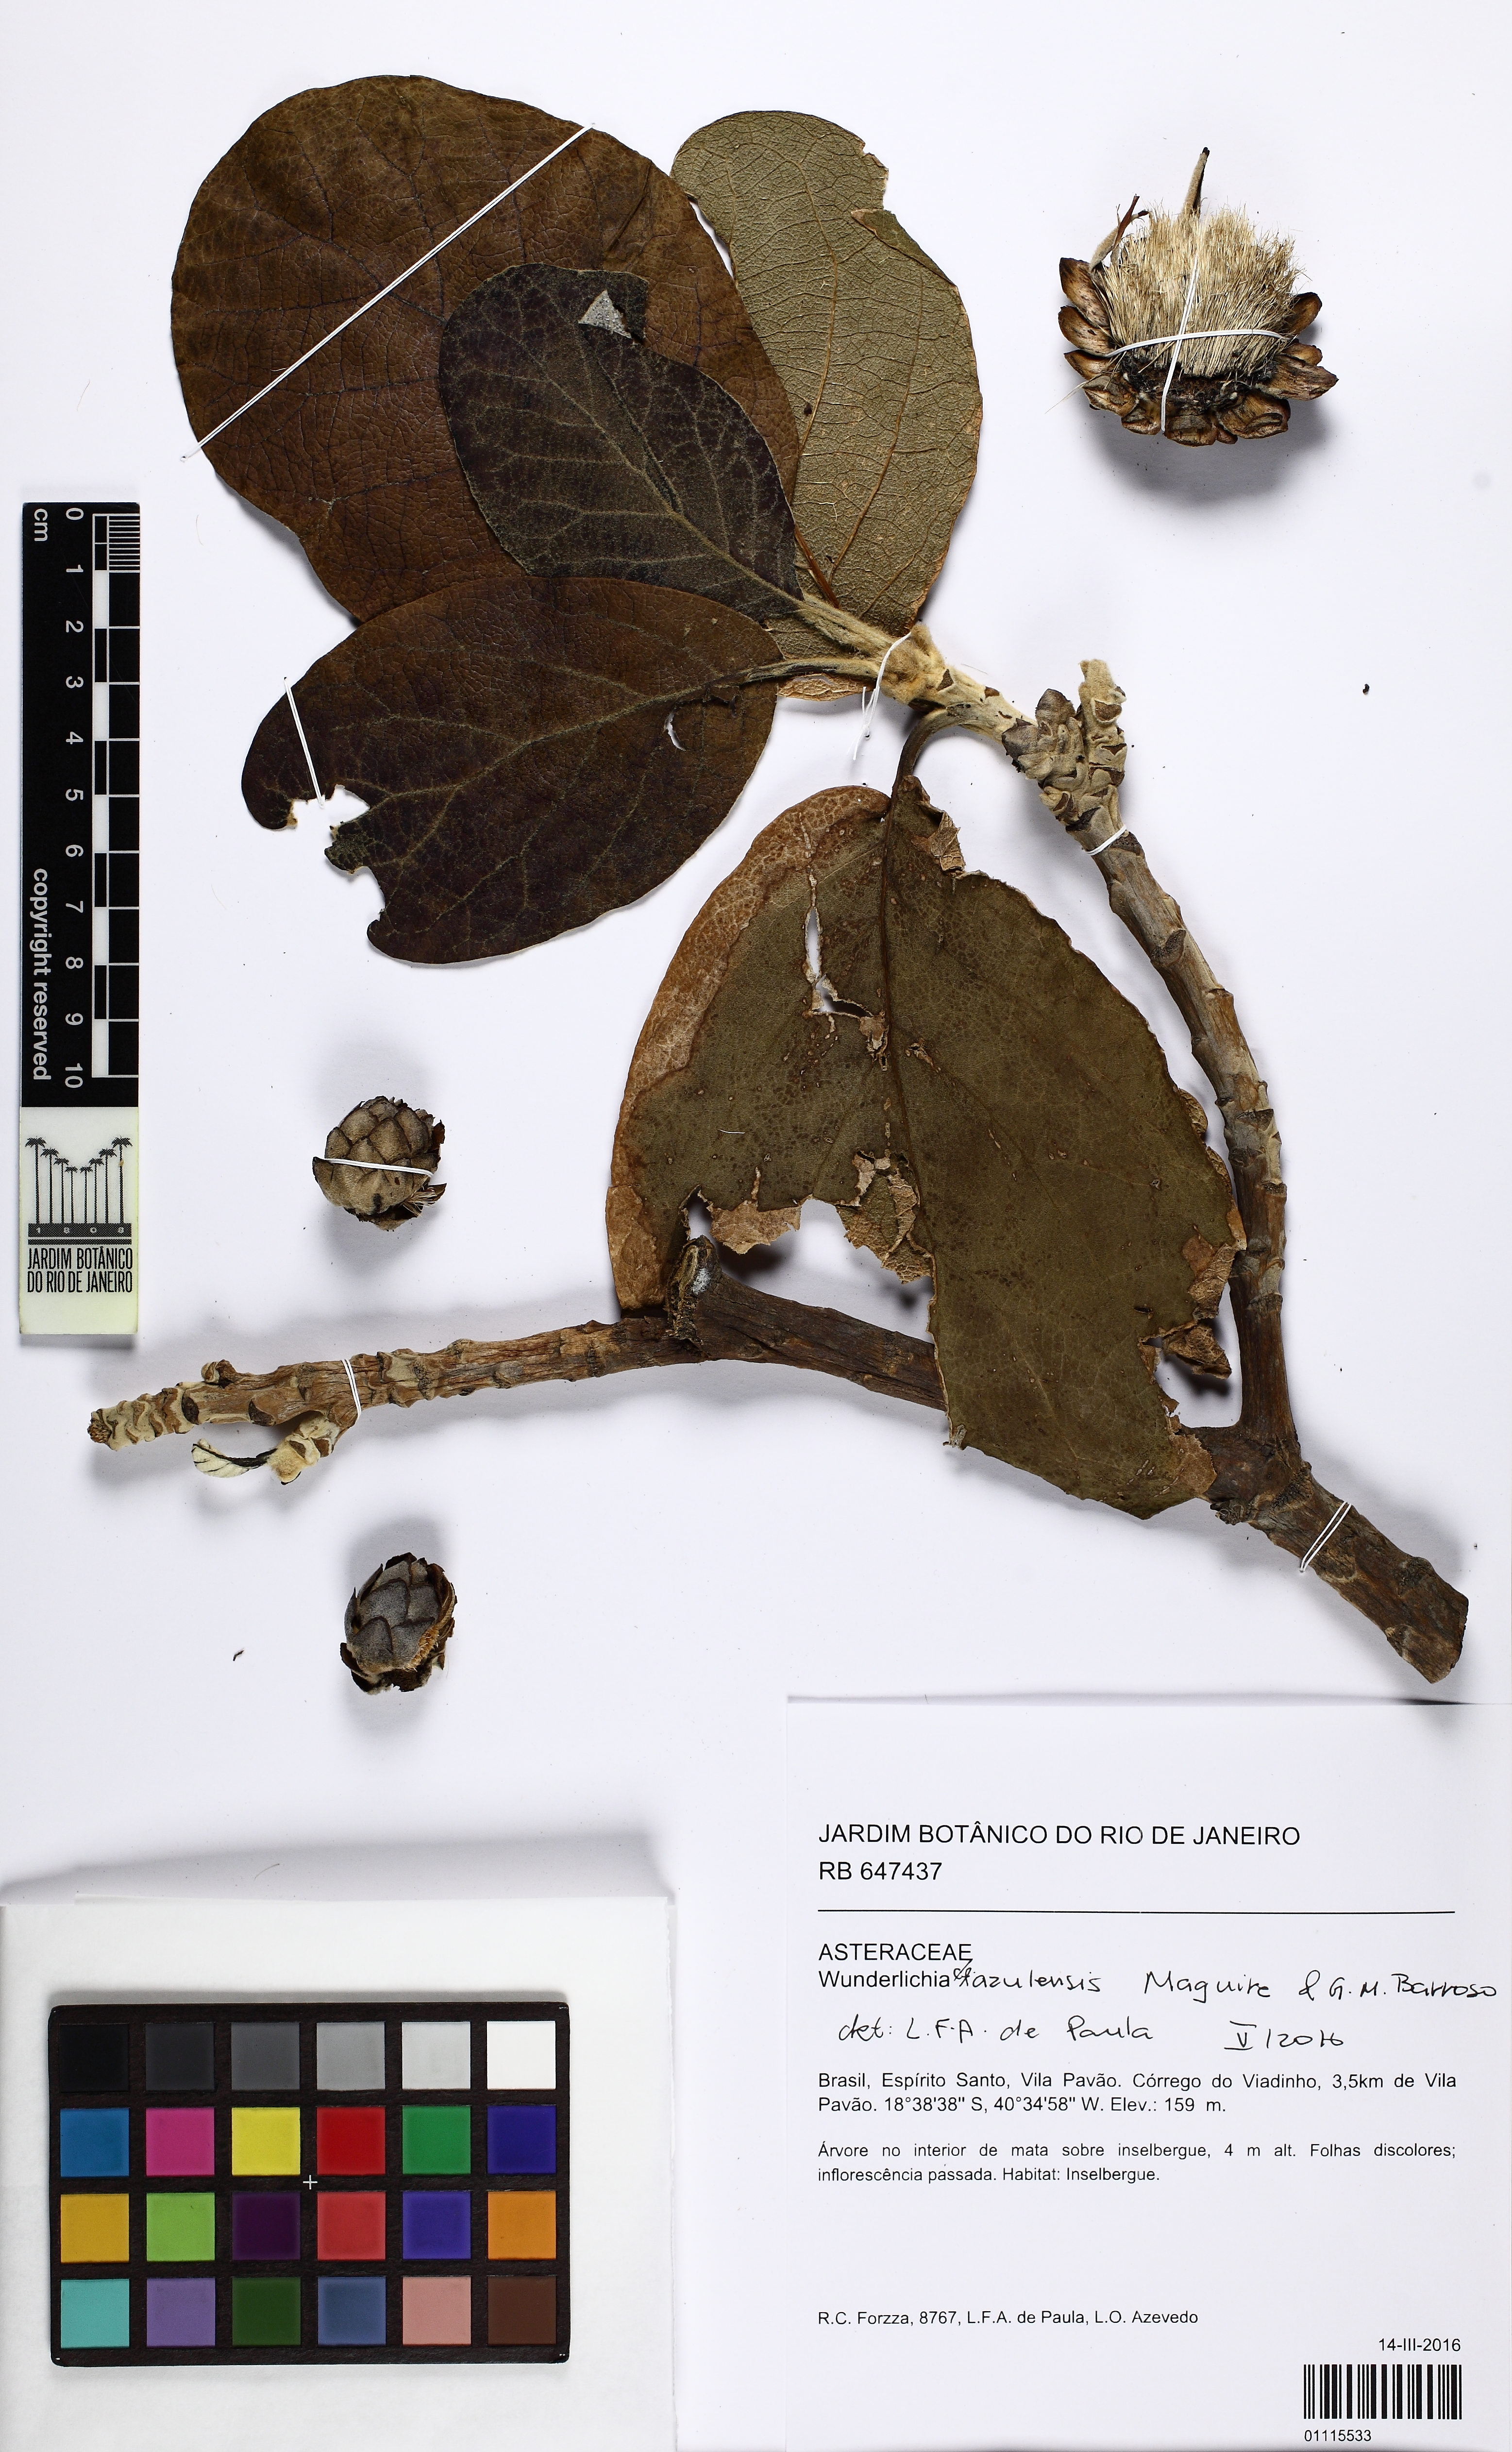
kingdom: Plantae
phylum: Tracheophyta
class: Magnoliopsida
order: Asterales
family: Asteraceae
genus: Wunderlichia
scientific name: Wunderlichia azulensis
